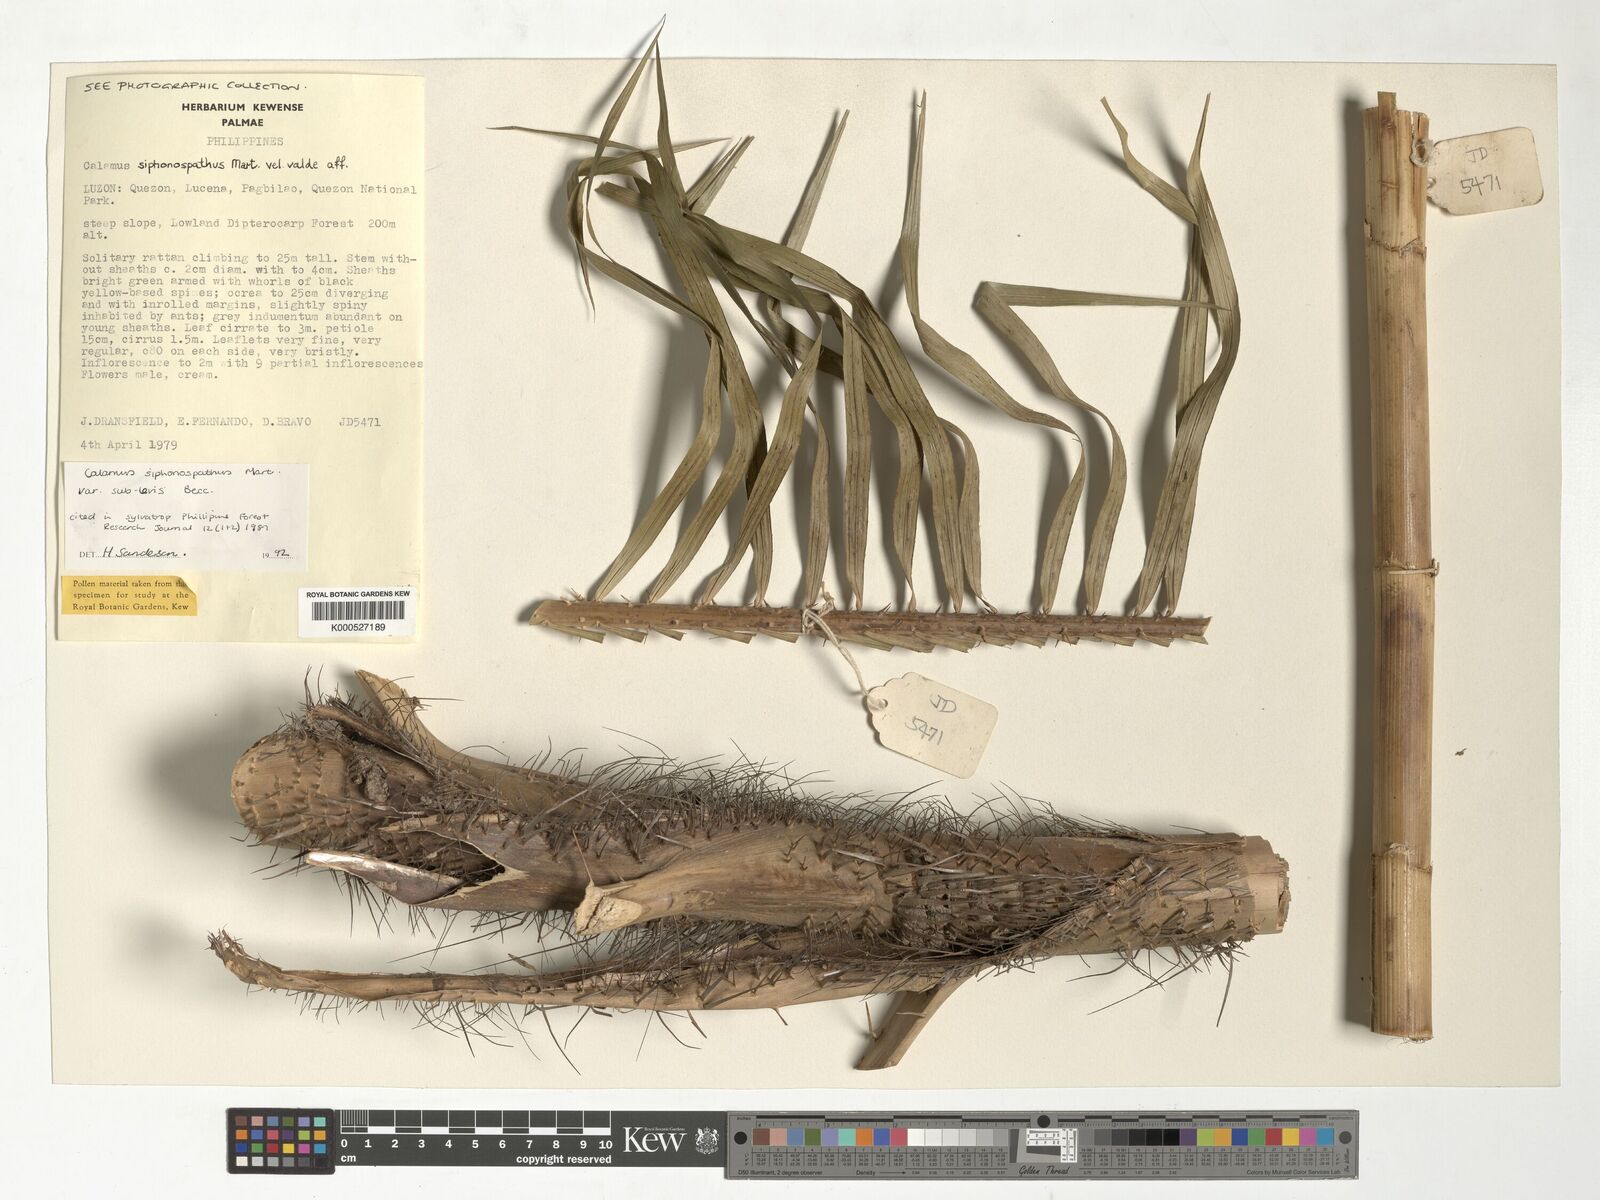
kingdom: Plantae
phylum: Tracheophyta
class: Liliopsida
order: Arecales
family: Arecaceae
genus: Calamus
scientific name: Calamus siphonospathus
